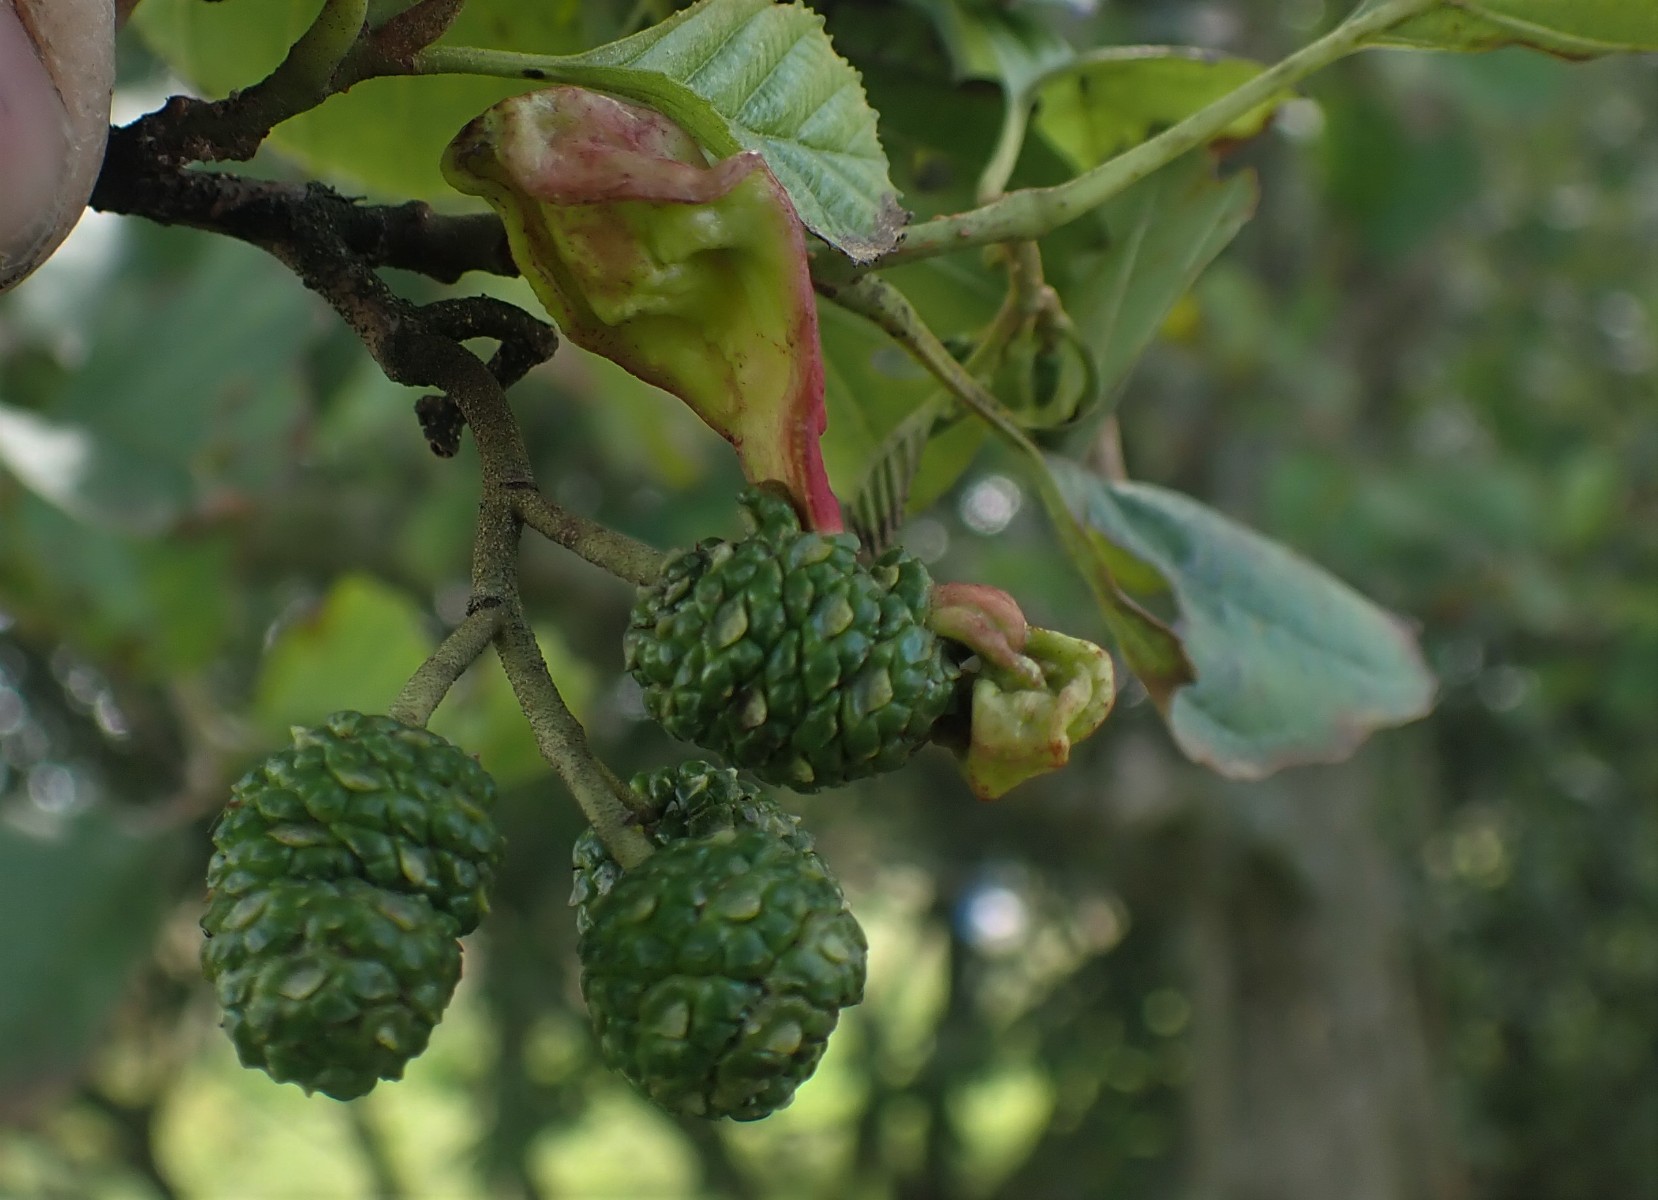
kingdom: Fungi
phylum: Ascomycota
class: Taphrinomycetes
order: Taphrinales
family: Taphrinaceae
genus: Taphrina
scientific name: Taphrina alni
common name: Alder tongue
